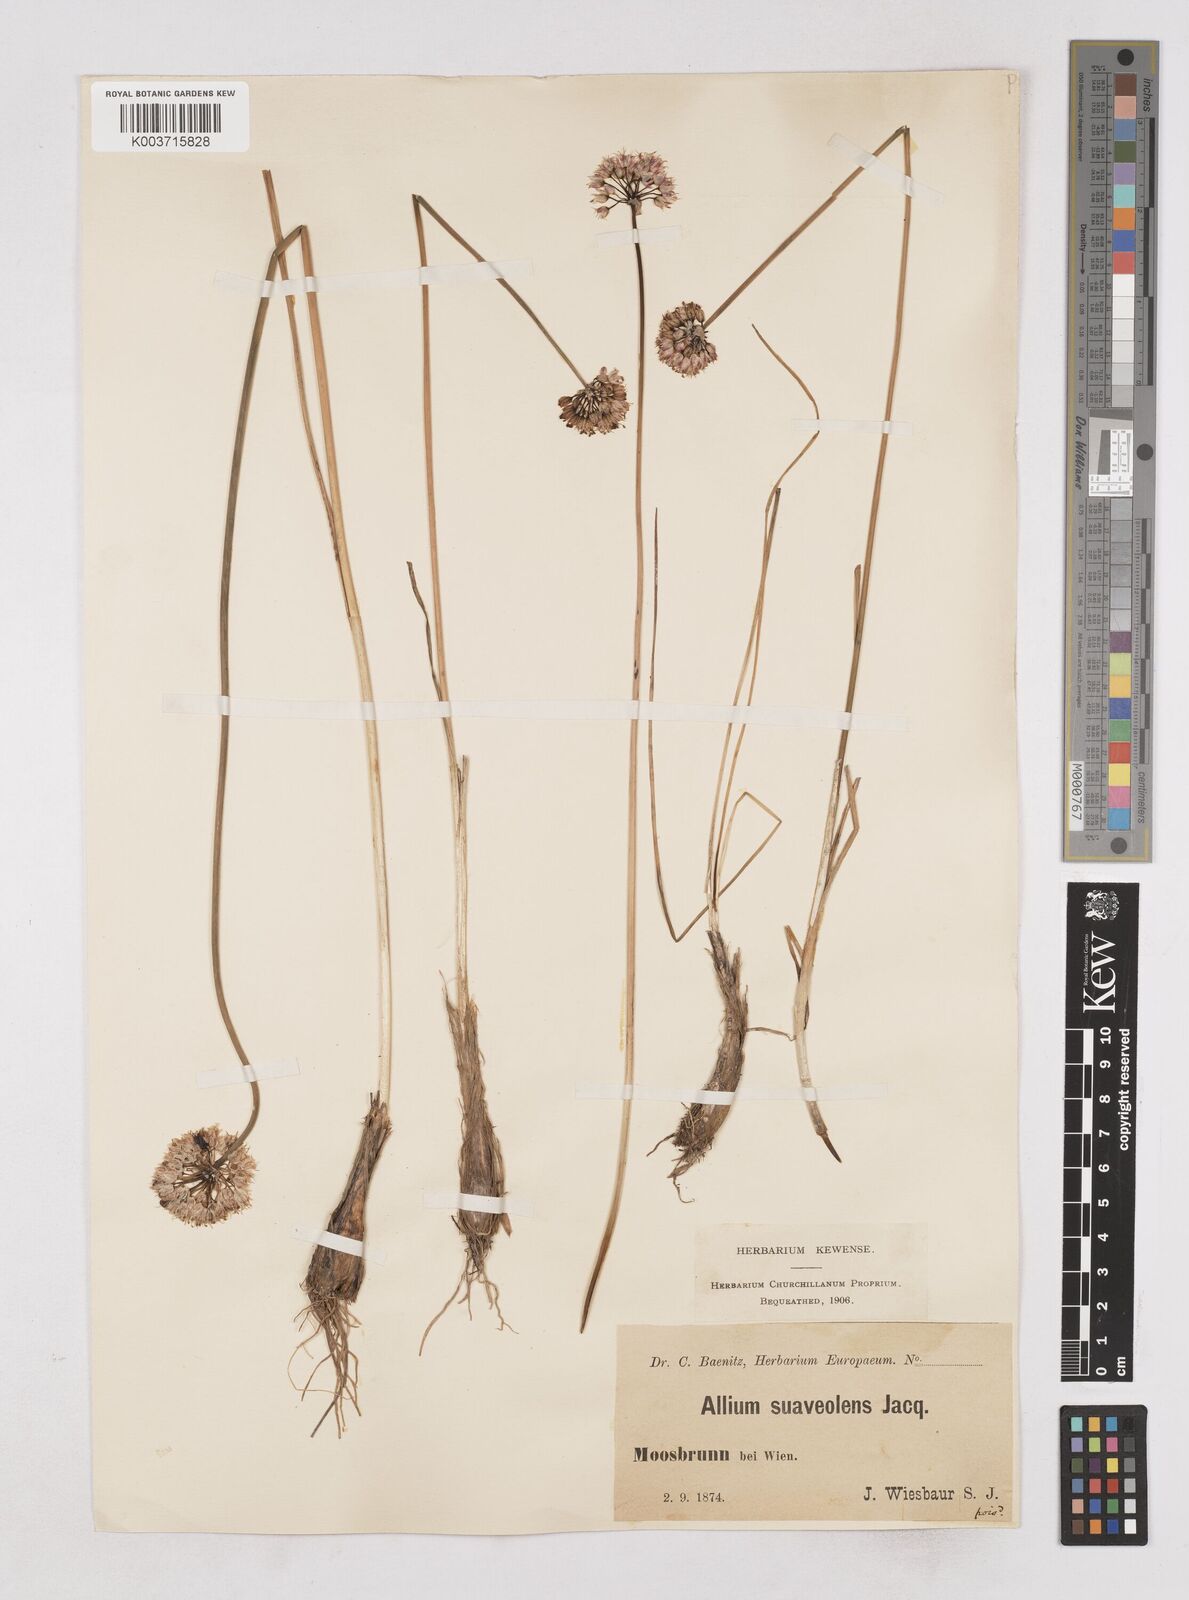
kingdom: Plantae
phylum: Tracheophyta
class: Liliopsida
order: Asparagales
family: Amaryllidaceae
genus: Allium
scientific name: Allium suaveolens
